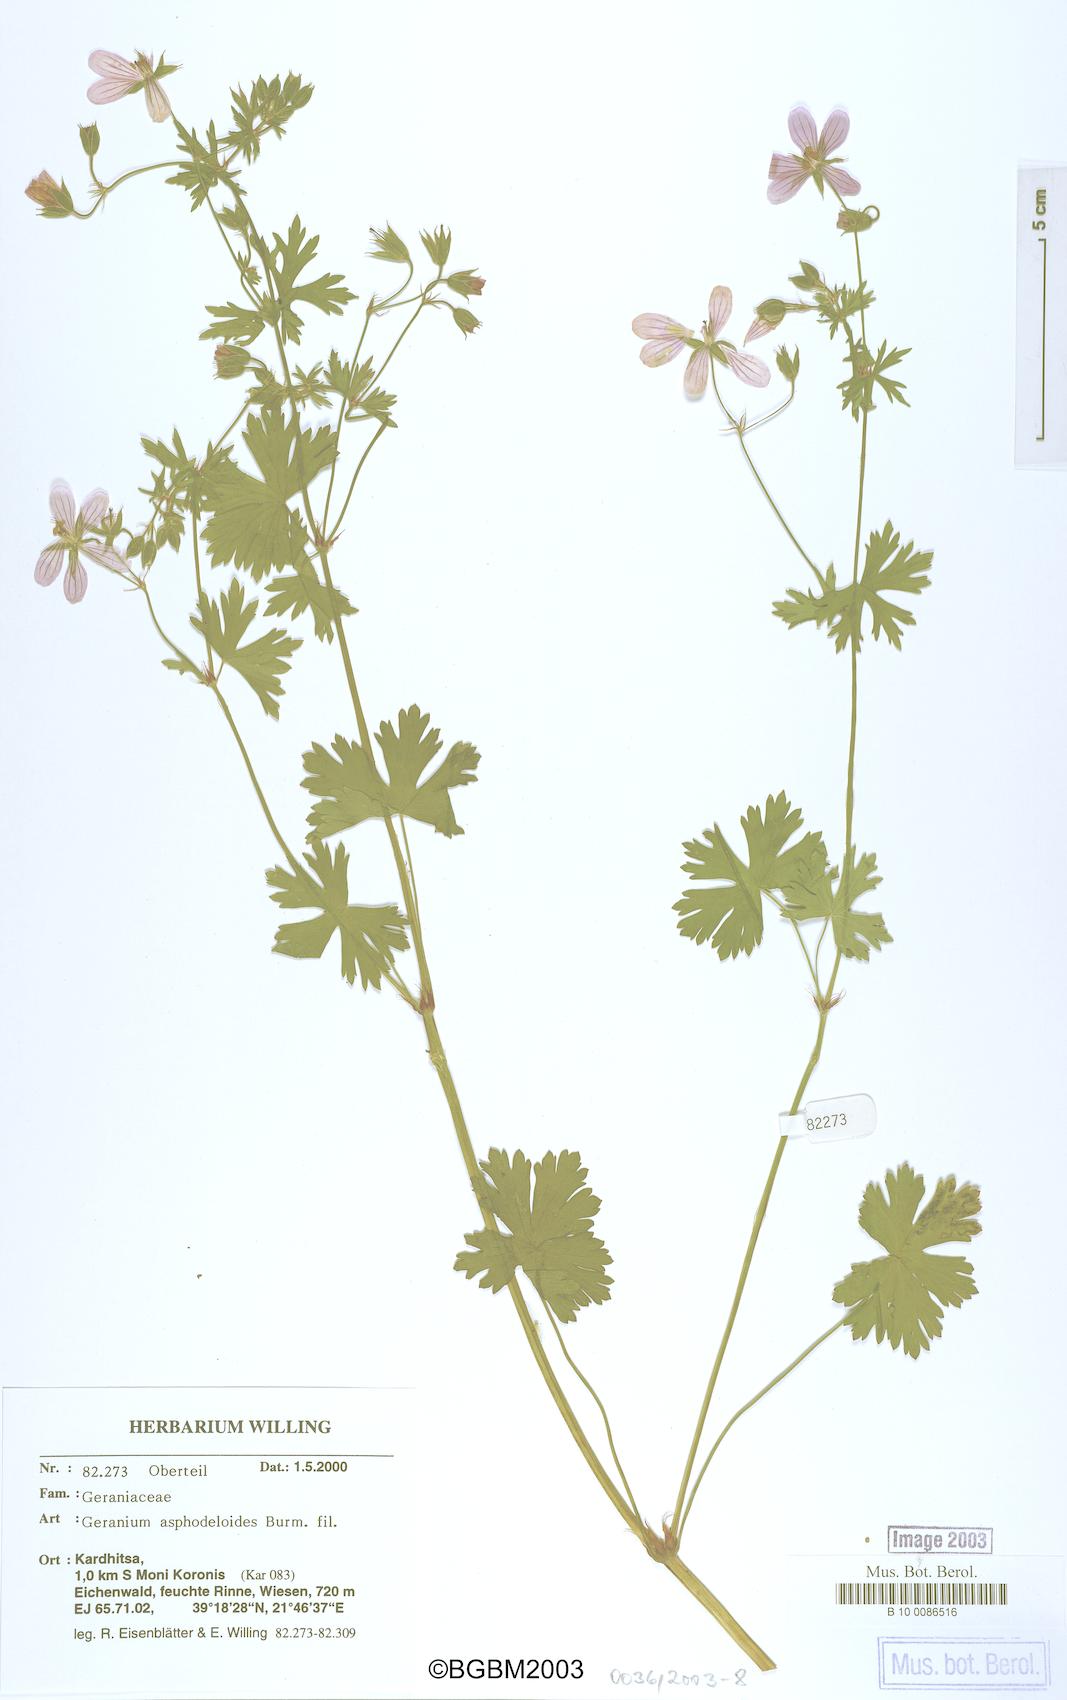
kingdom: Plantae
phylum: Tracheophyta
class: Magnoliopsida
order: Geraniales
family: Geraniaceae
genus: Geranium
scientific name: Geranium asphodeloides
